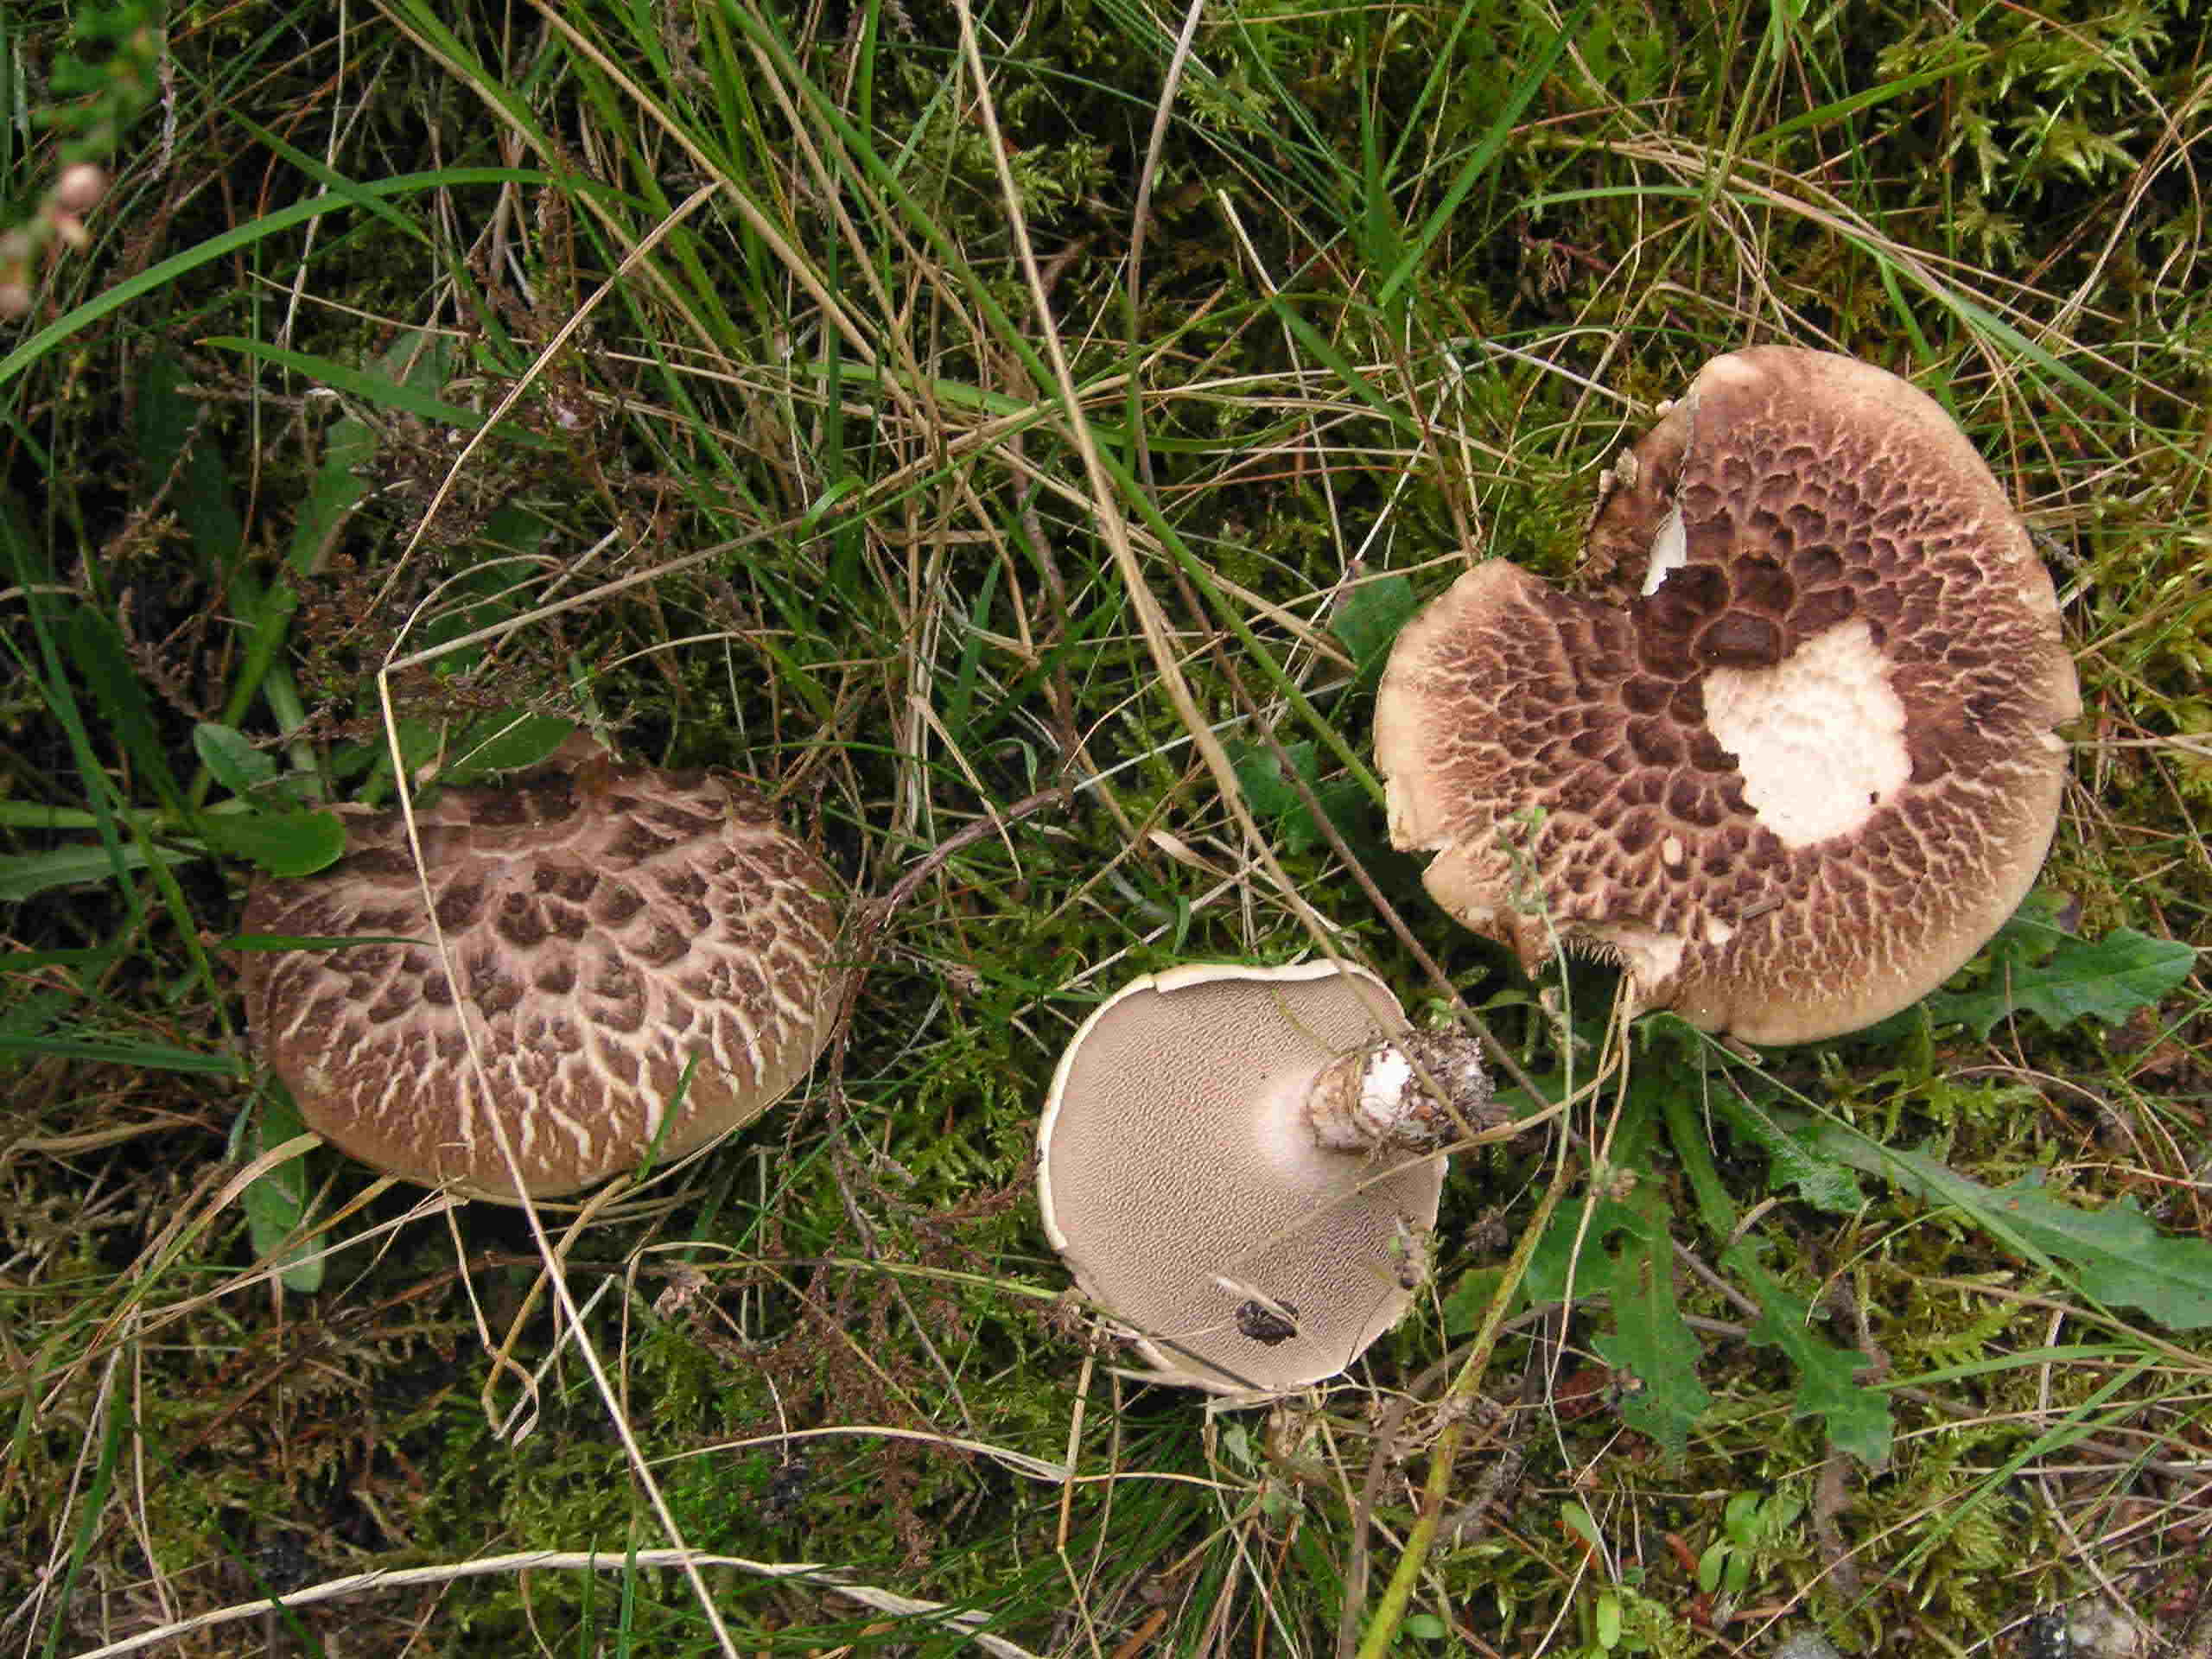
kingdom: Fungi
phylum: Basidiomycota
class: Agaricomycetes
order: Thelephorales
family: Bankeraceae
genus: Sarcodon
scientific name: Sarcodon imbricatus
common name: skællet kødpigsvamp
